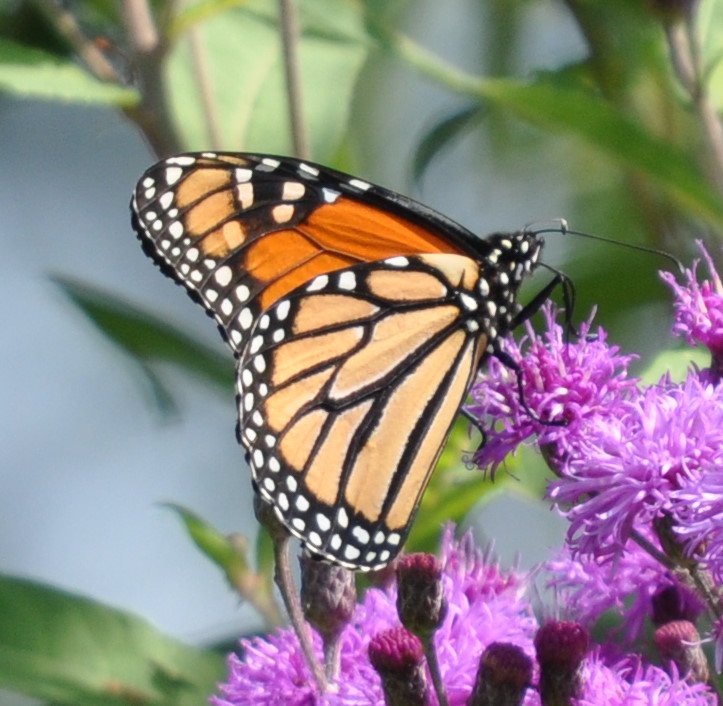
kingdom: Animalia
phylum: Arthropoda
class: Insecta
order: Lepidoptera
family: Nymphalidae
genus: Danaus
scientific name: Danaus plexippus
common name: Monarch
